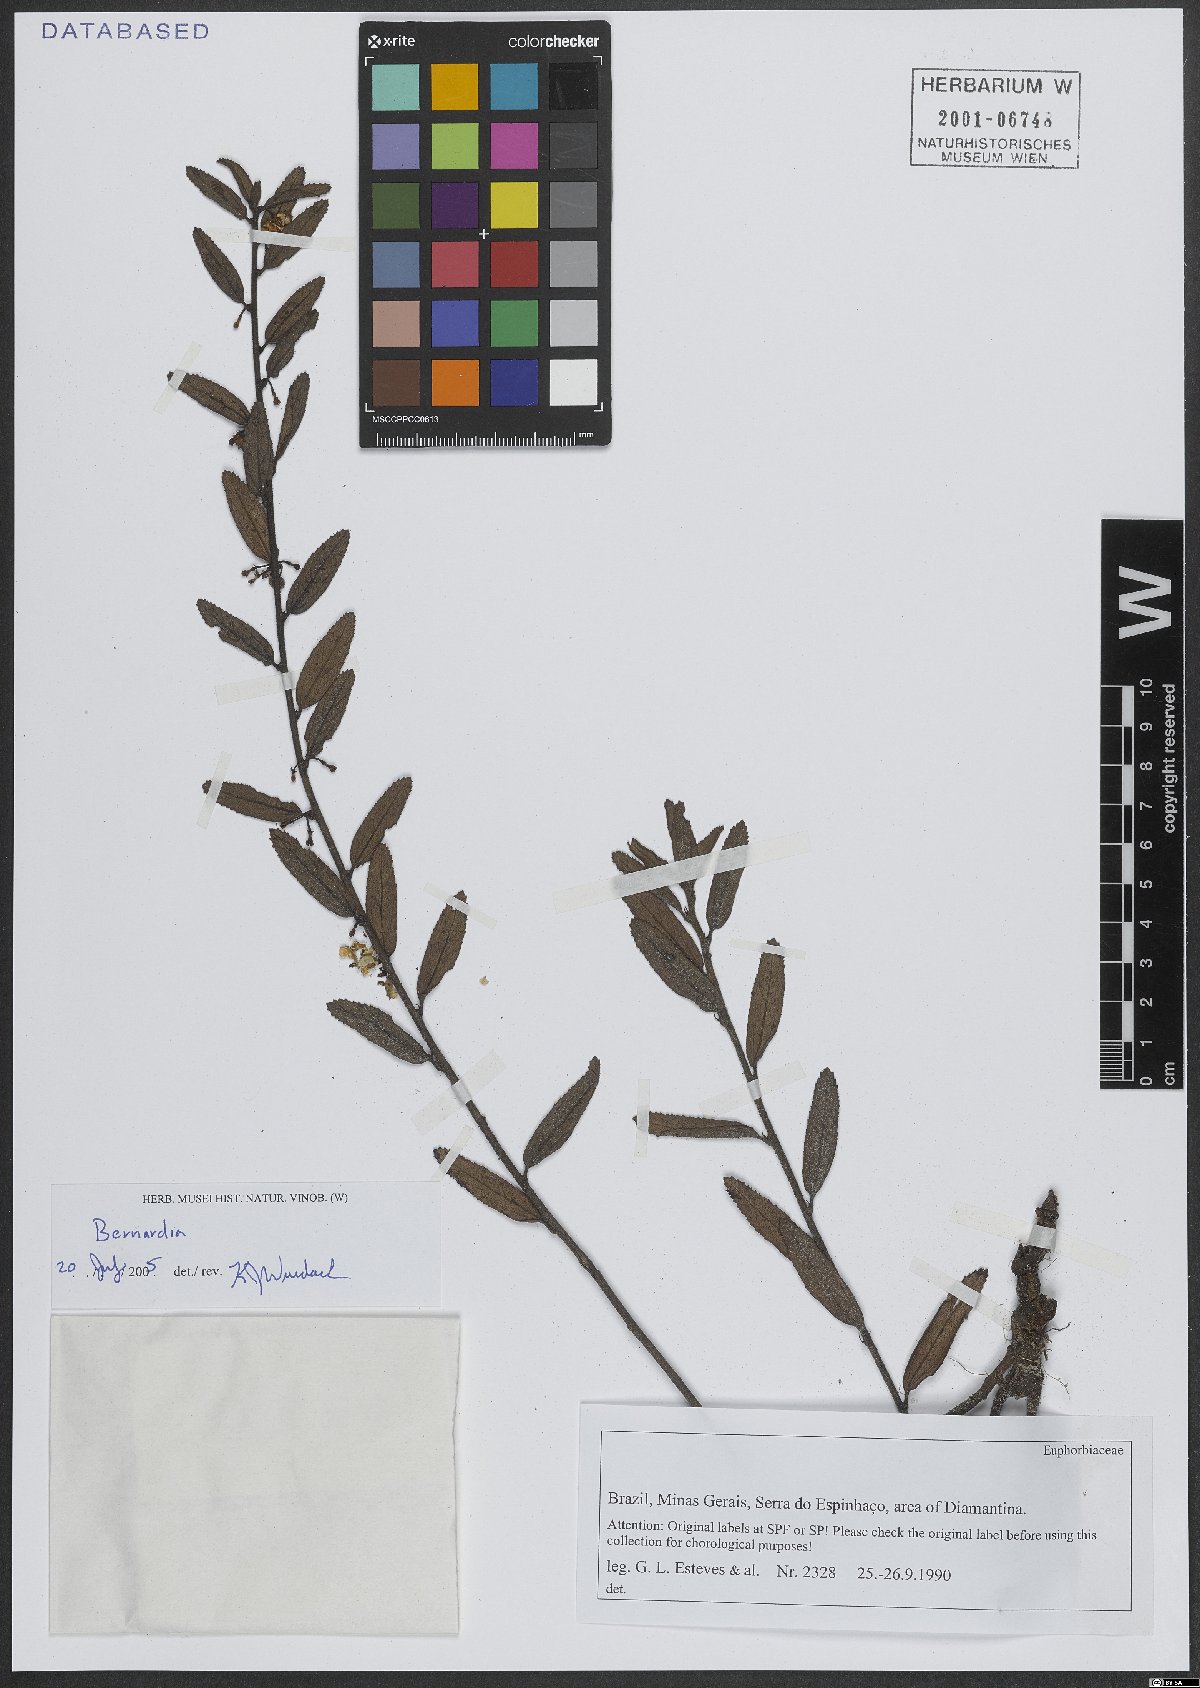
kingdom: Plantae
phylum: Tracheophyta
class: Magnoliopsida
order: Malpighiales
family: Euphorbiaceae
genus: Bernardia
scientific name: Bernardia
